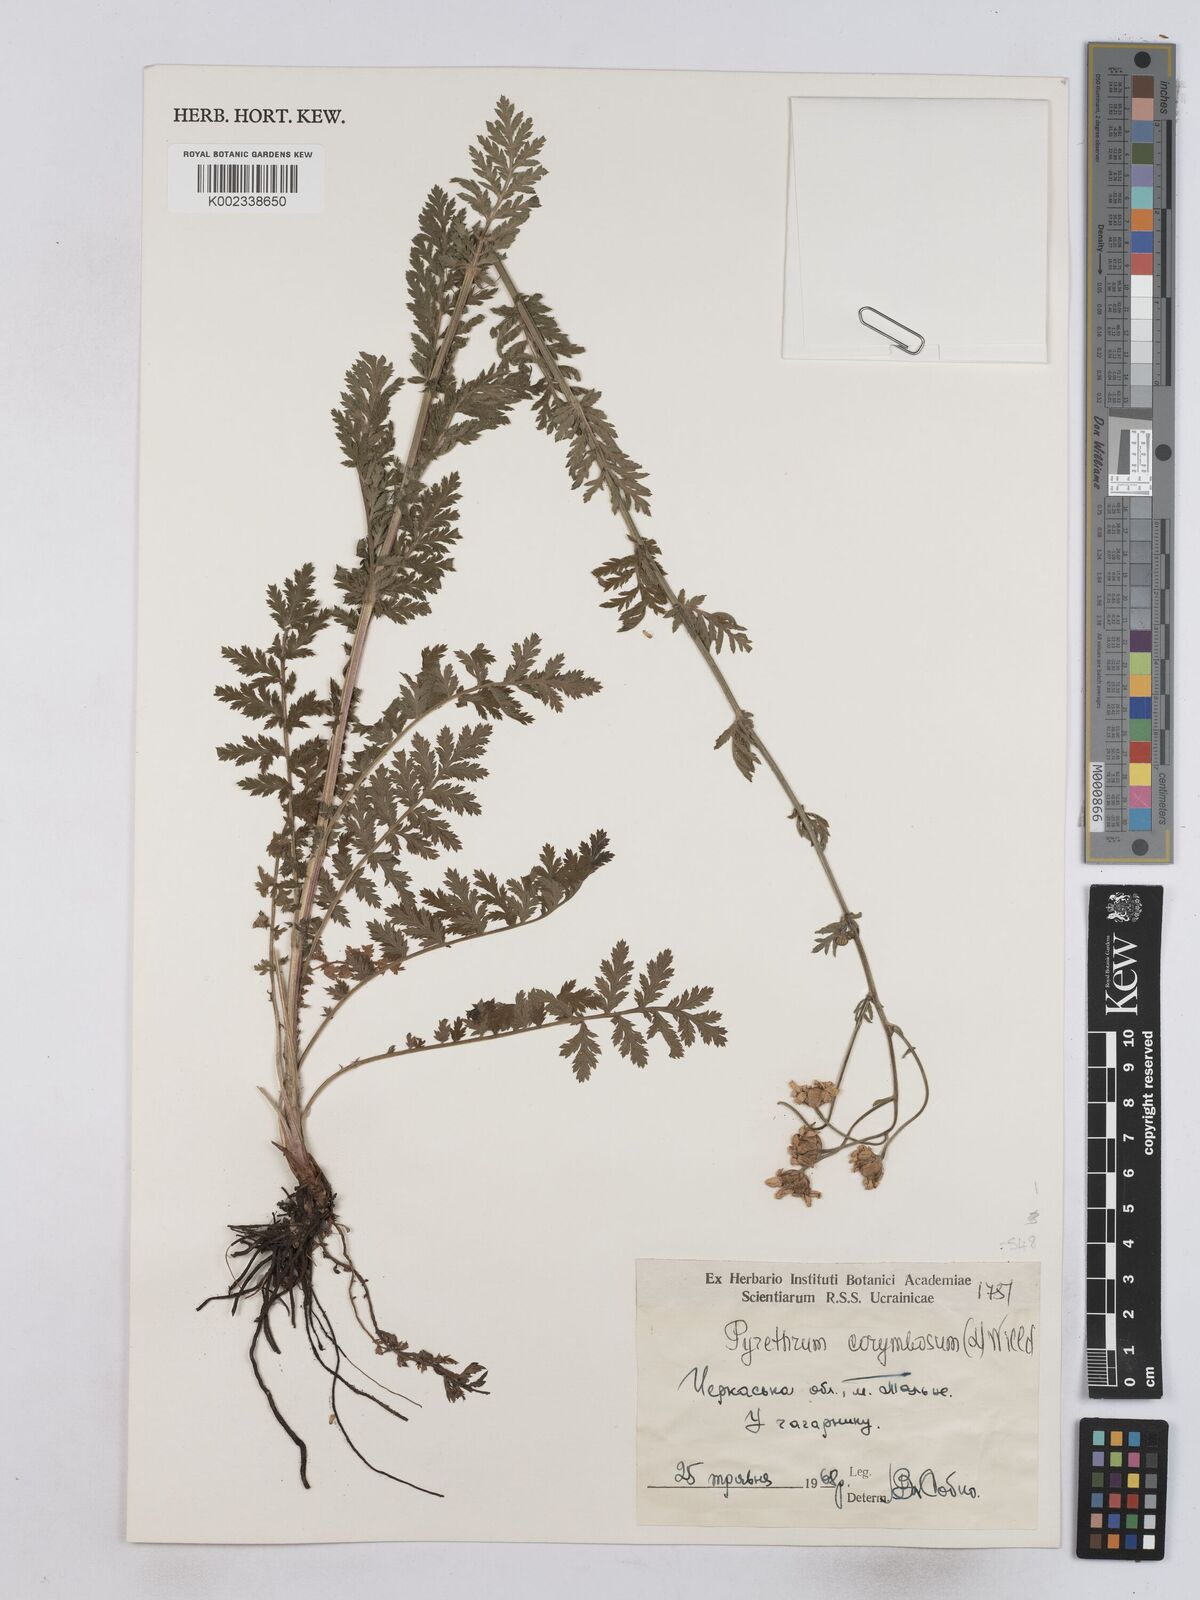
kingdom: Plantae
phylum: Tracheophyta
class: Magnoliopsida
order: Asterales
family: Asteraceae
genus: Tanacetum
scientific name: Tanacetum corymbosum
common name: Scentless feverfew
